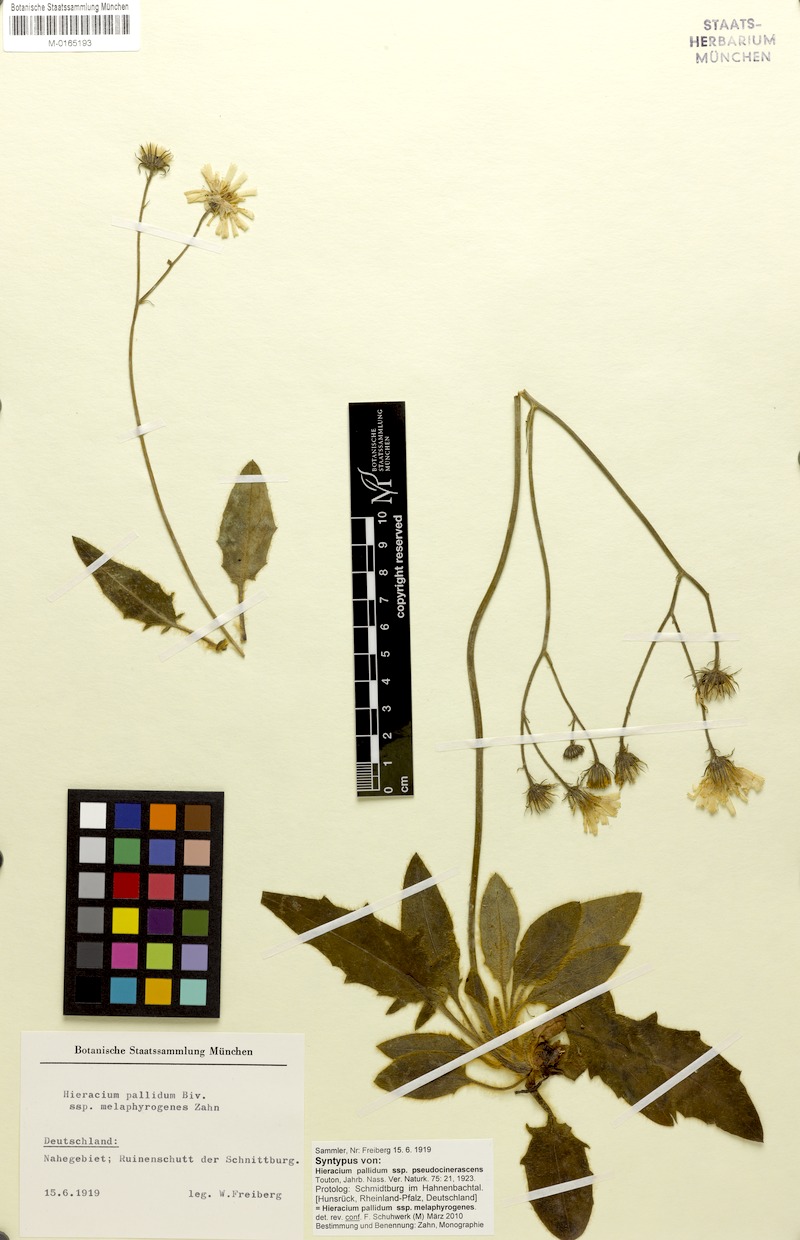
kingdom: Plantae
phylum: Tracheophyta
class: Magnoliopsida
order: Asterales
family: Asteraceae
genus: Hieracium
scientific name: Hieracium schmidtii
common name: Schmidt's hawkweed
